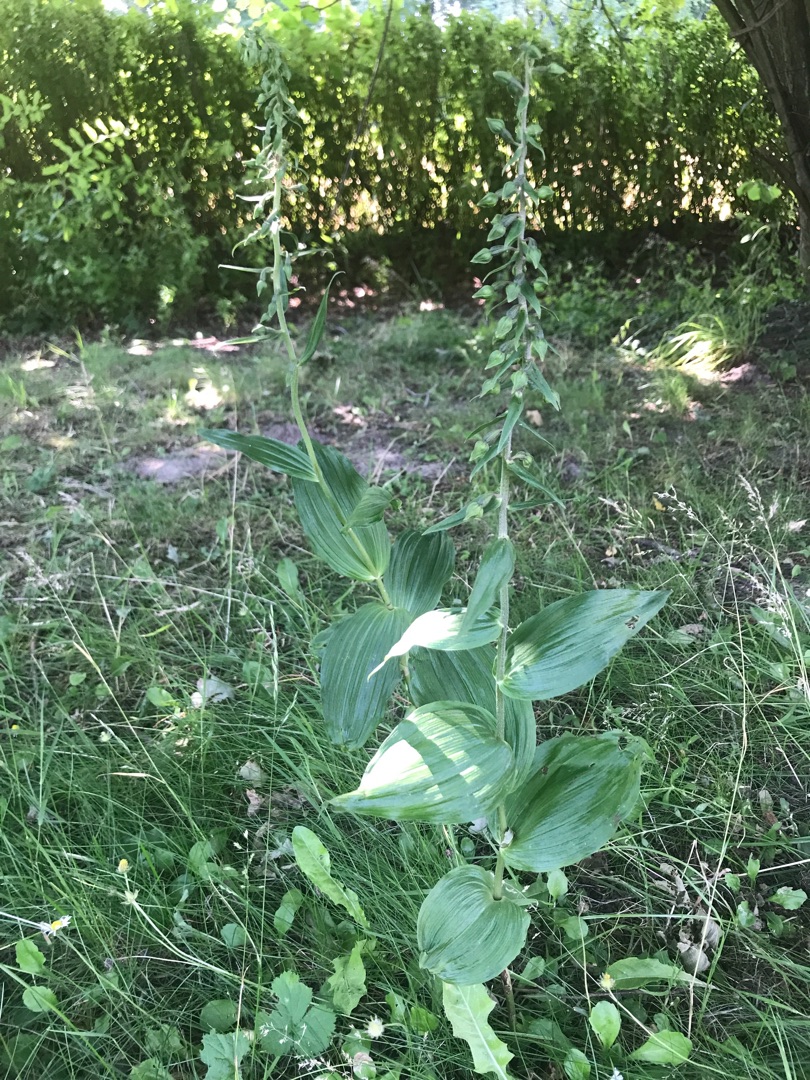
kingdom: Plantae
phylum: Tracheophyta
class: Liliopsida
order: Asparagales
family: Orchidaceae
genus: Epipactis
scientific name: Epipactis helleborine
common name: Skov-hullæbe
